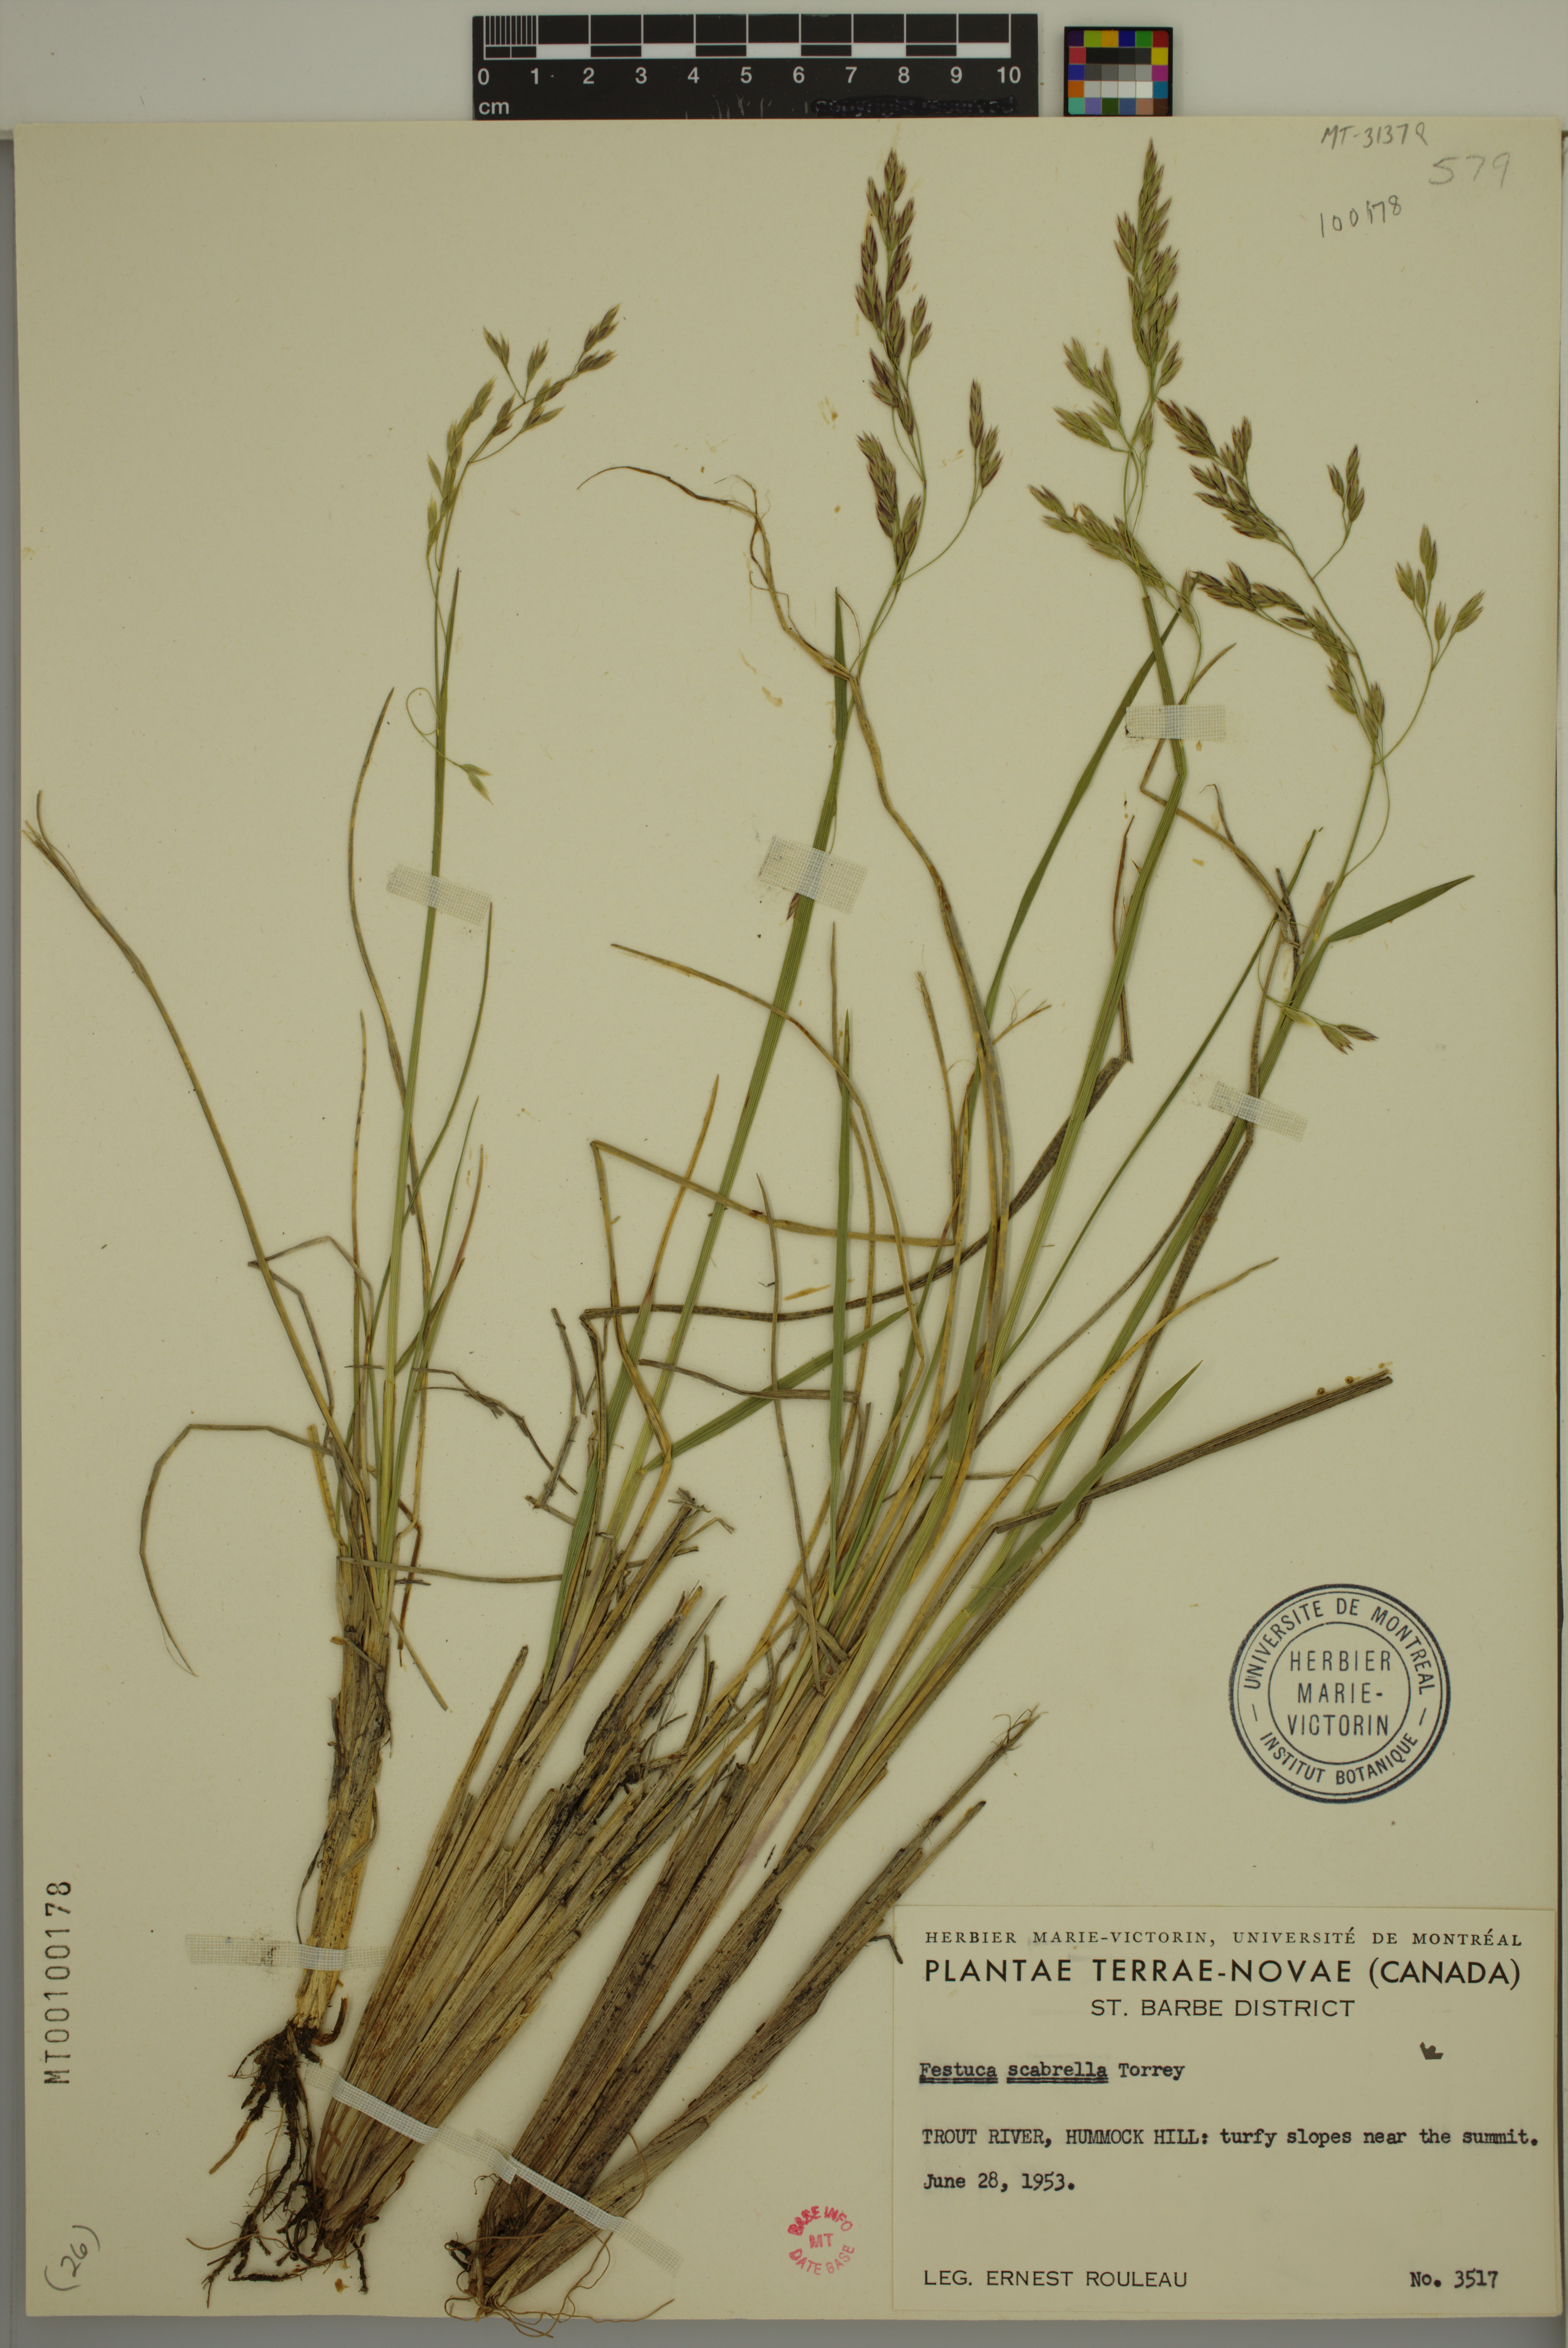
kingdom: Plantae
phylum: Tracheophyta
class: Liliopsida
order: Poales
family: Poaceae
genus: Festuca
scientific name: Festuca altaica
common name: Northern rough fescue
